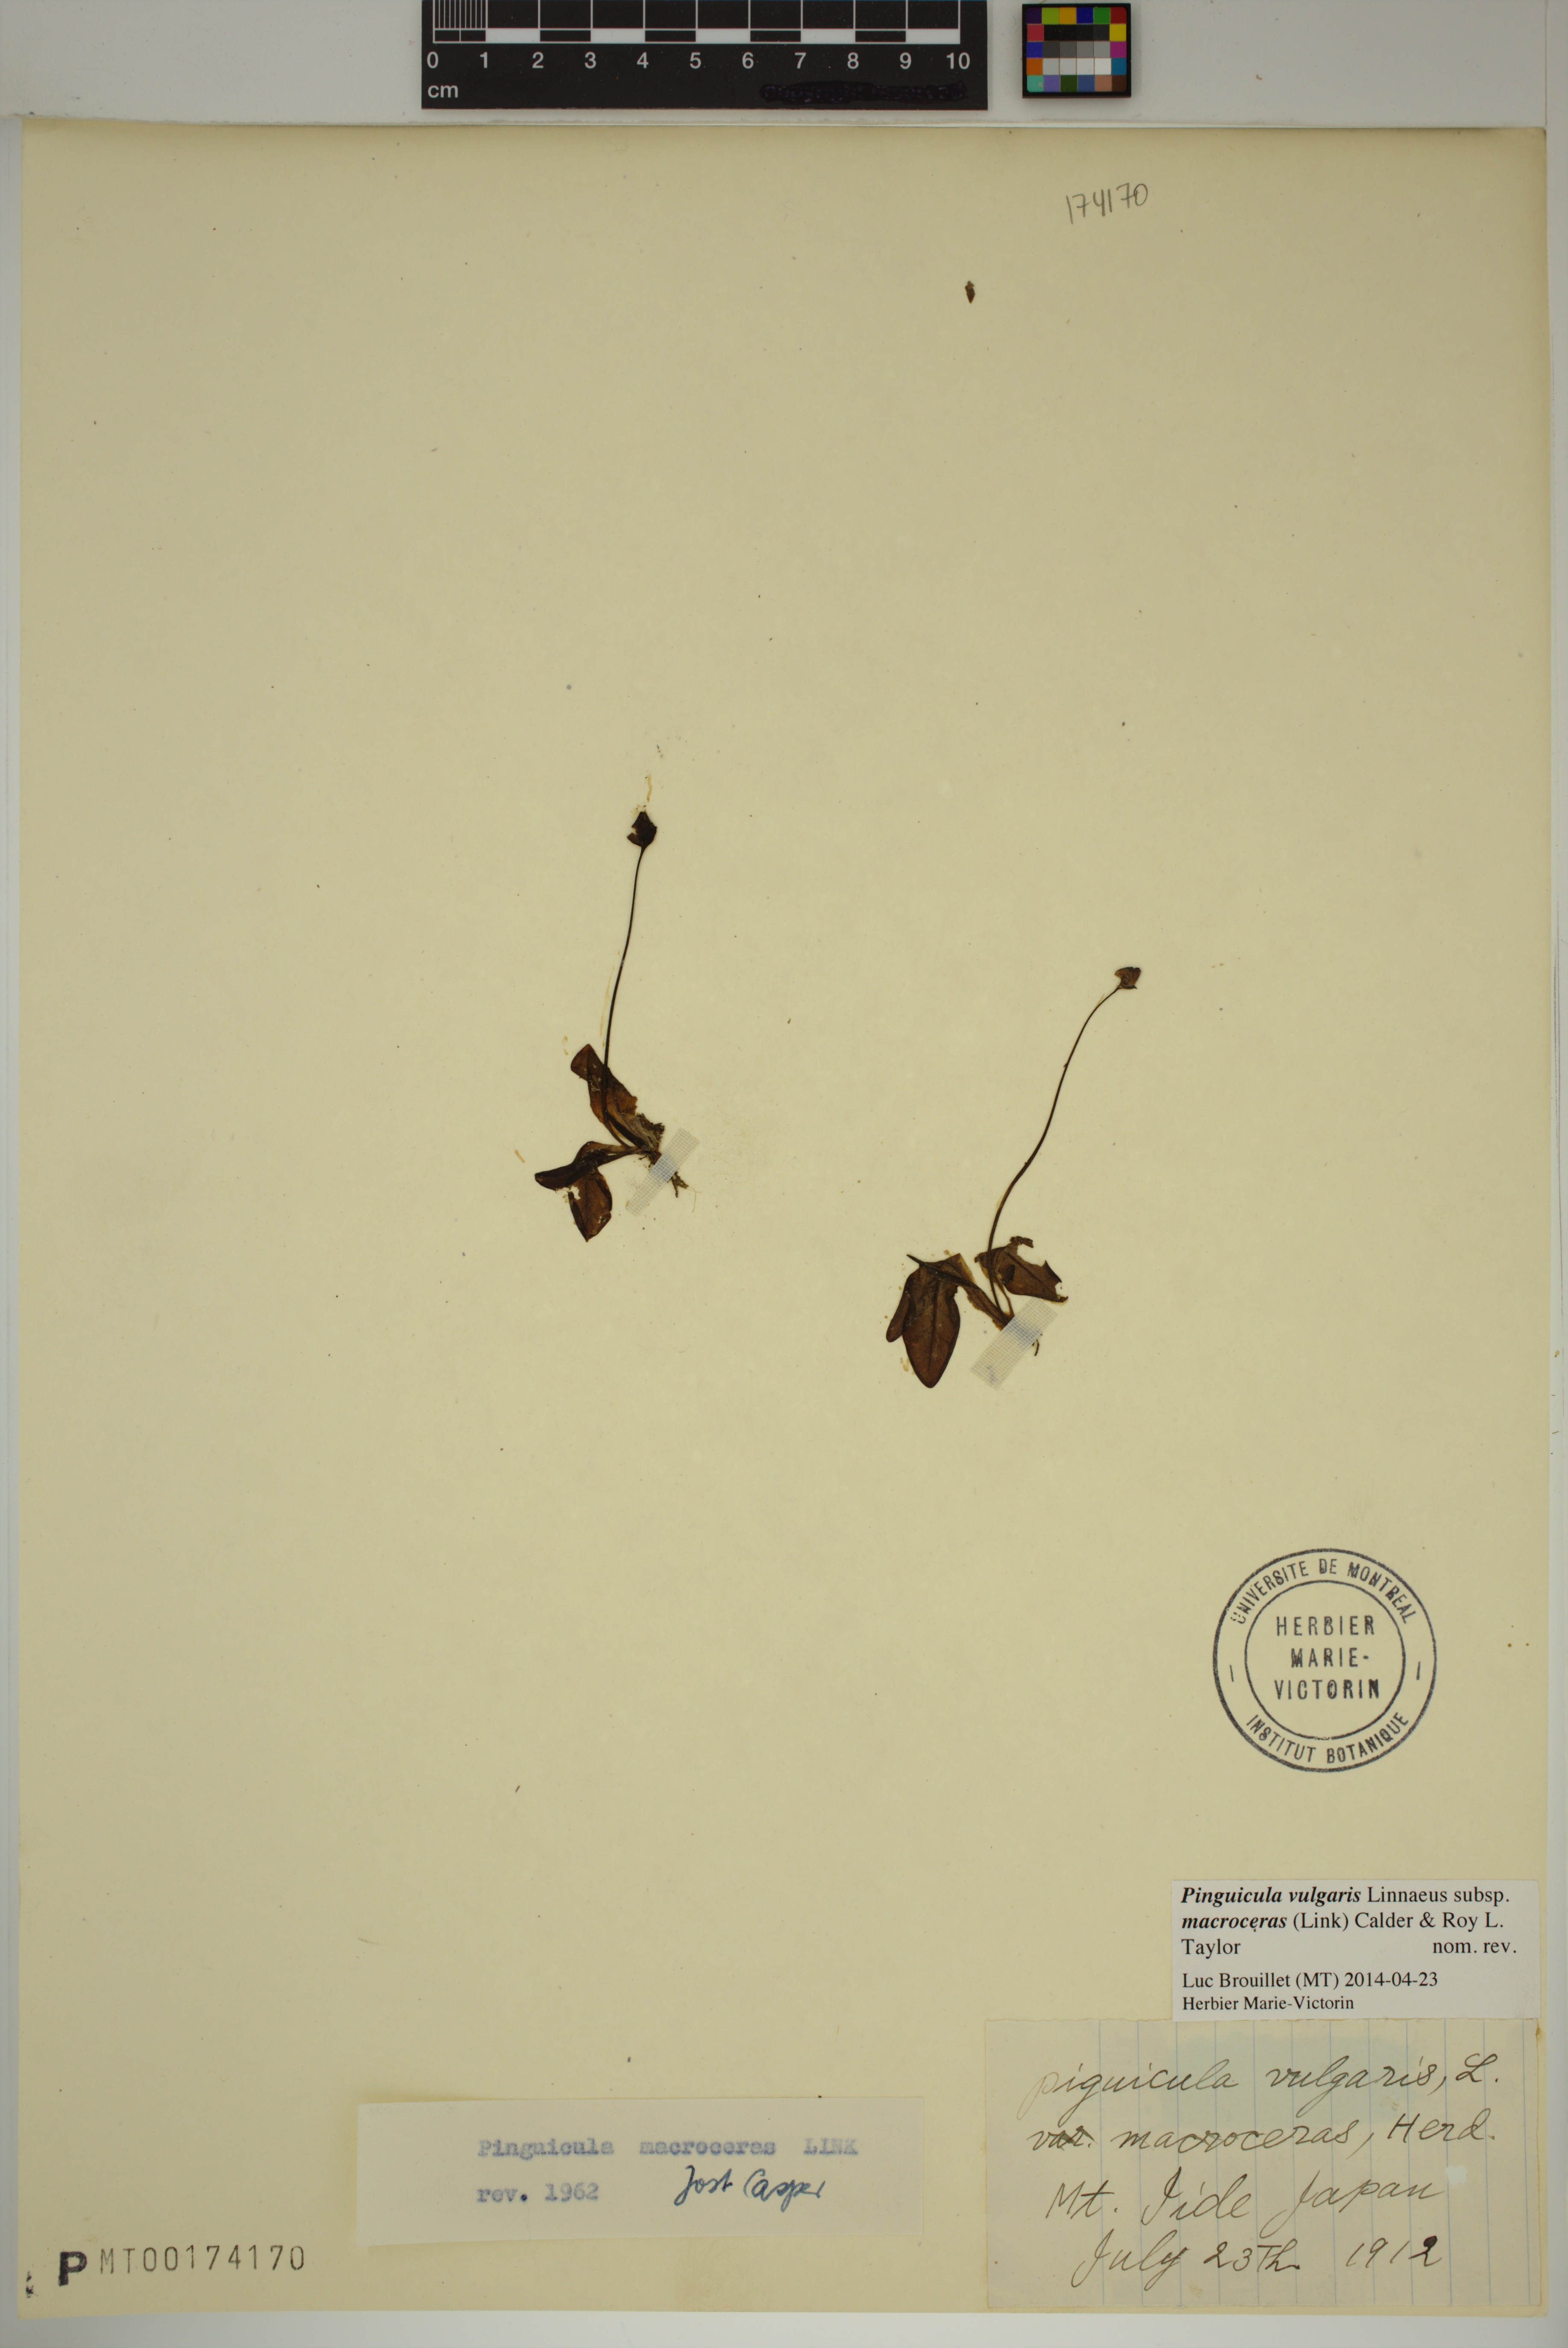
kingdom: Plantae
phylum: Tracheophyta
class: Magnoliopsida
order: Lamiales
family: Lentibulariaceae
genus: Pinguicula
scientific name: Pinguicula macroceras
